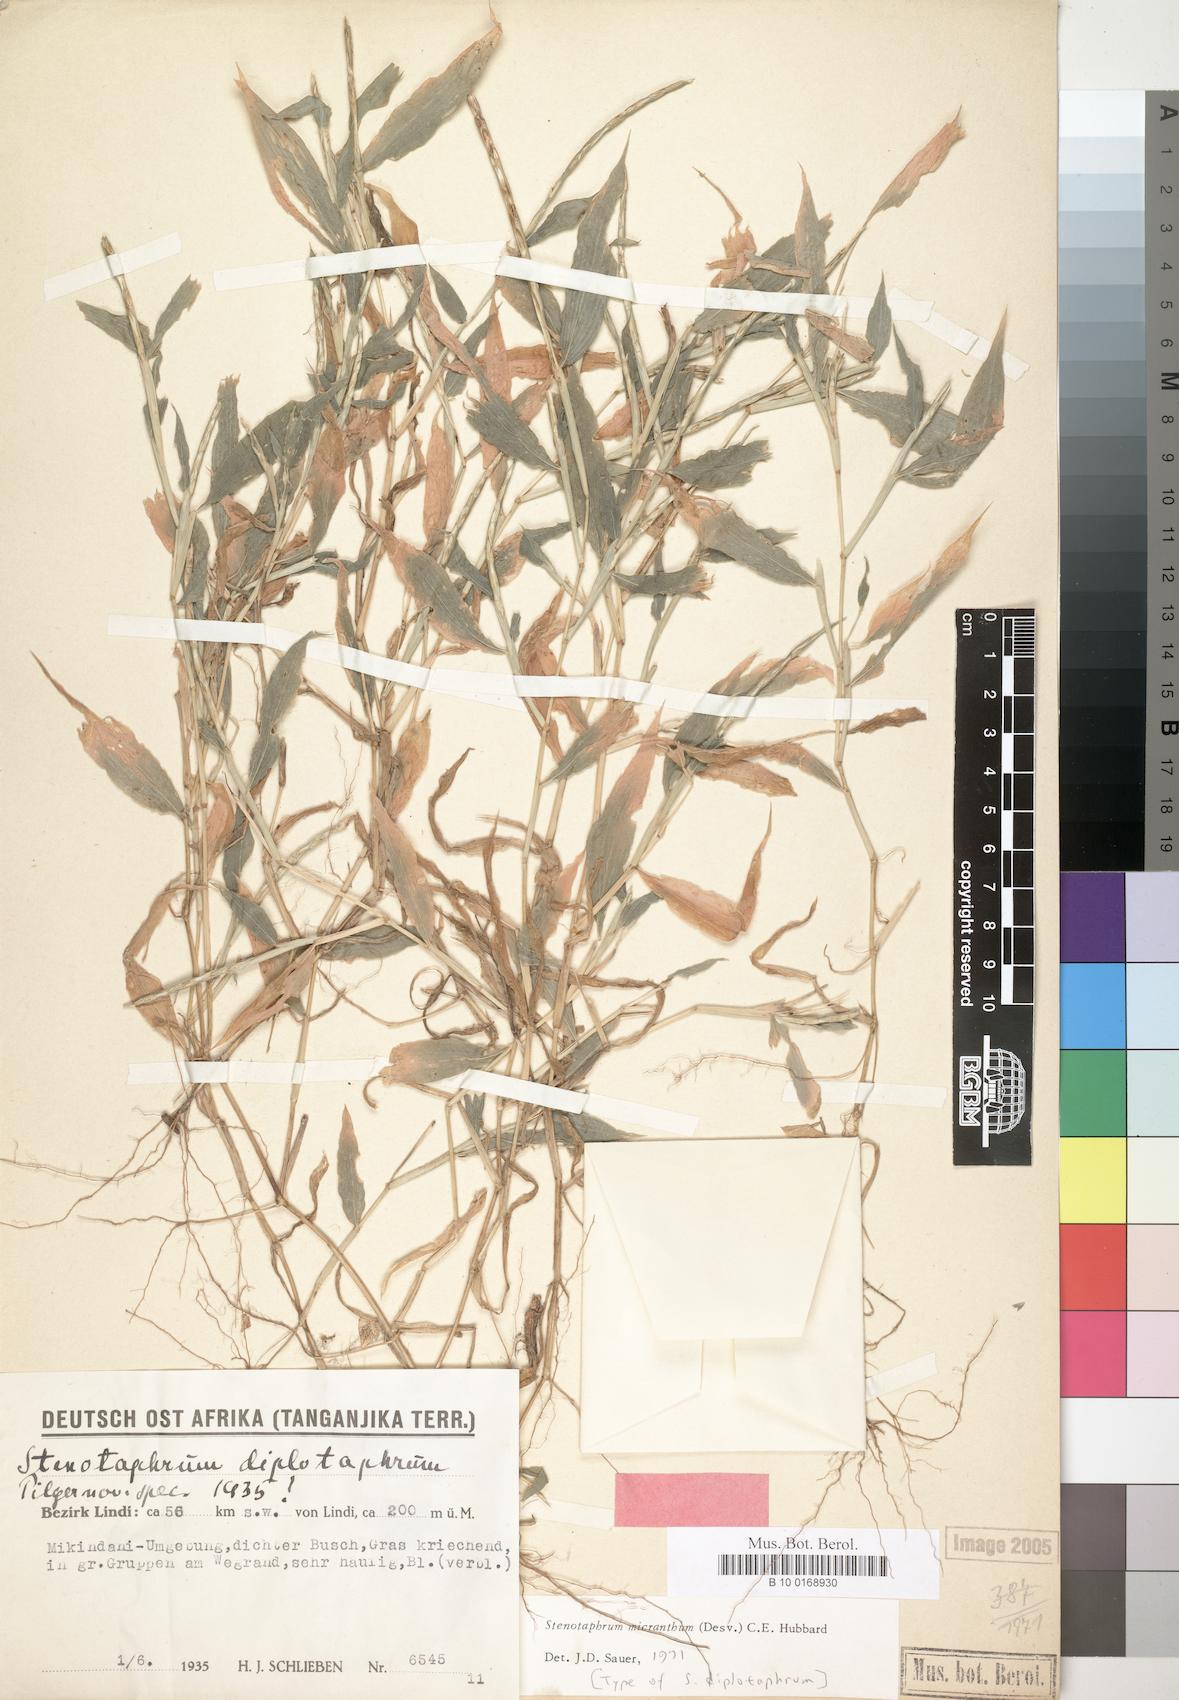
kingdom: Plantae
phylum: Tracheophyta
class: Liliopsida
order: Poales
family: Poaceae
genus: Stenotaphrum
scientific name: Stenotaphrum micranthum
